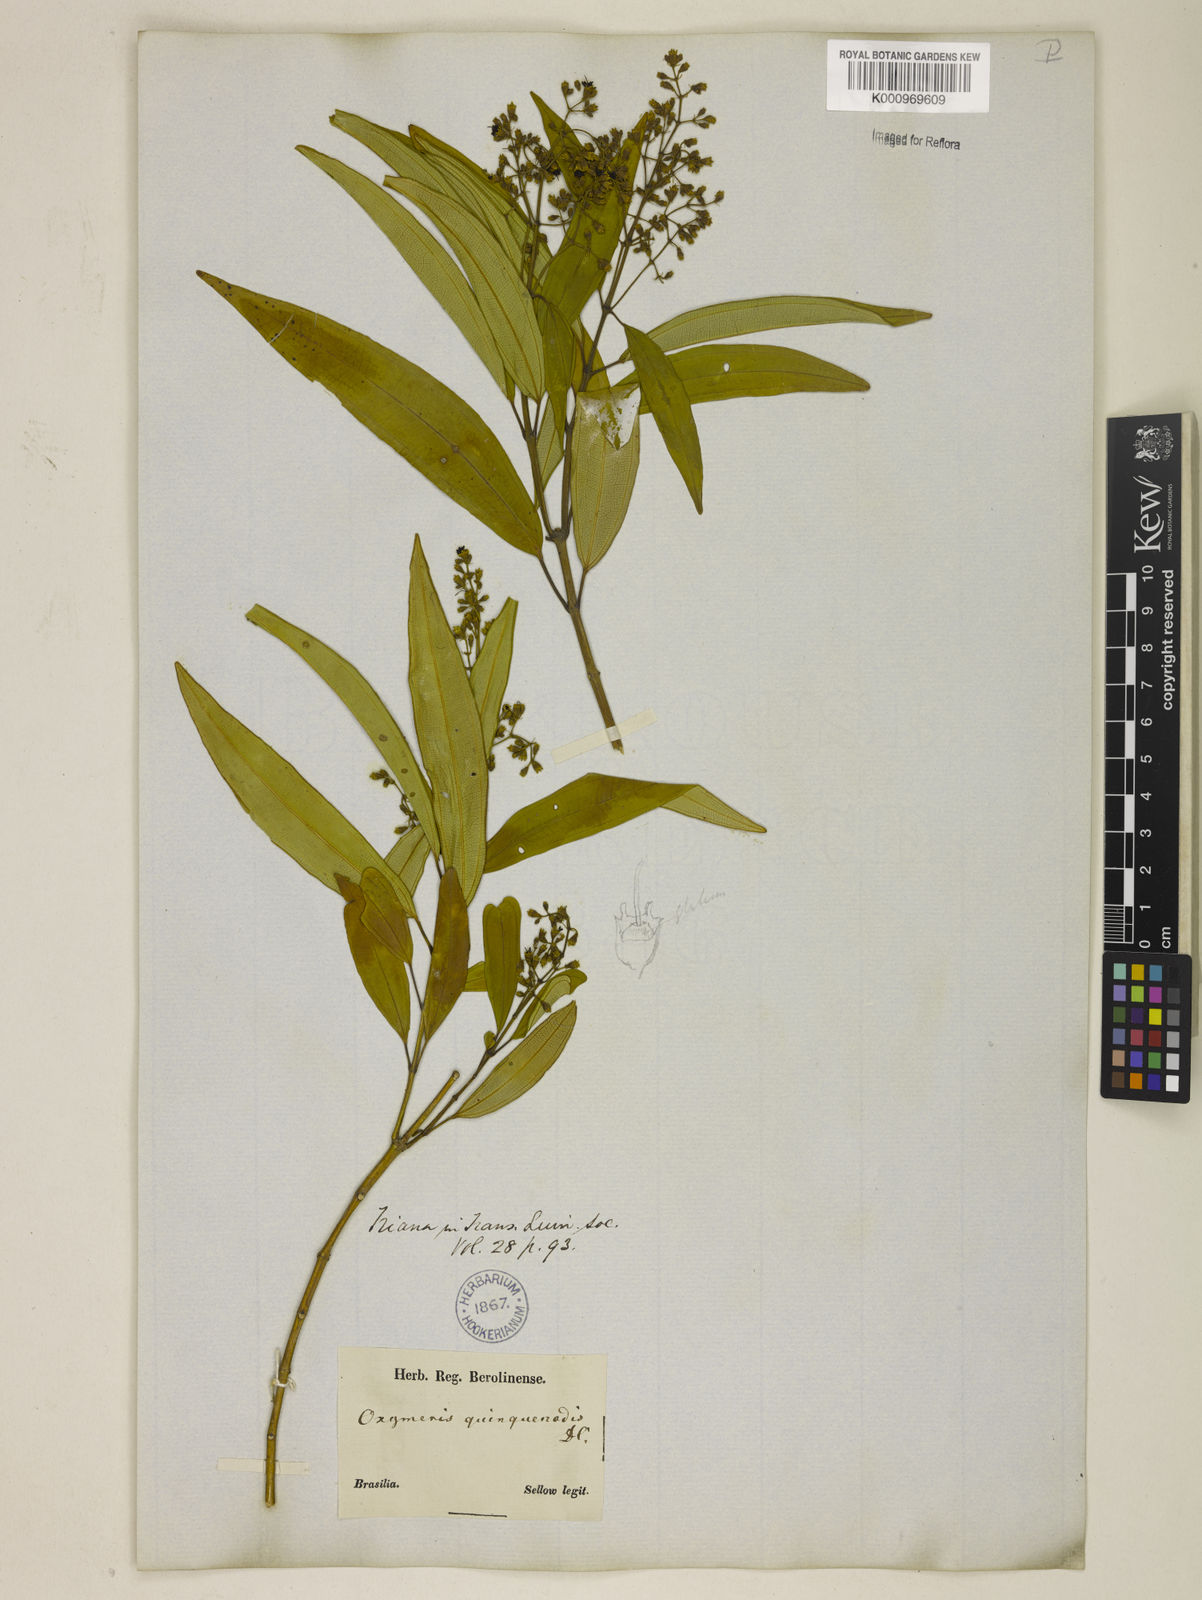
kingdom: Plantae
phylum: Tracheophyta
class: Magnoliopsida
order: Myrtales
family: Melastomataceae
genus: Miconia
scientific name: Miconia quinquenodis
